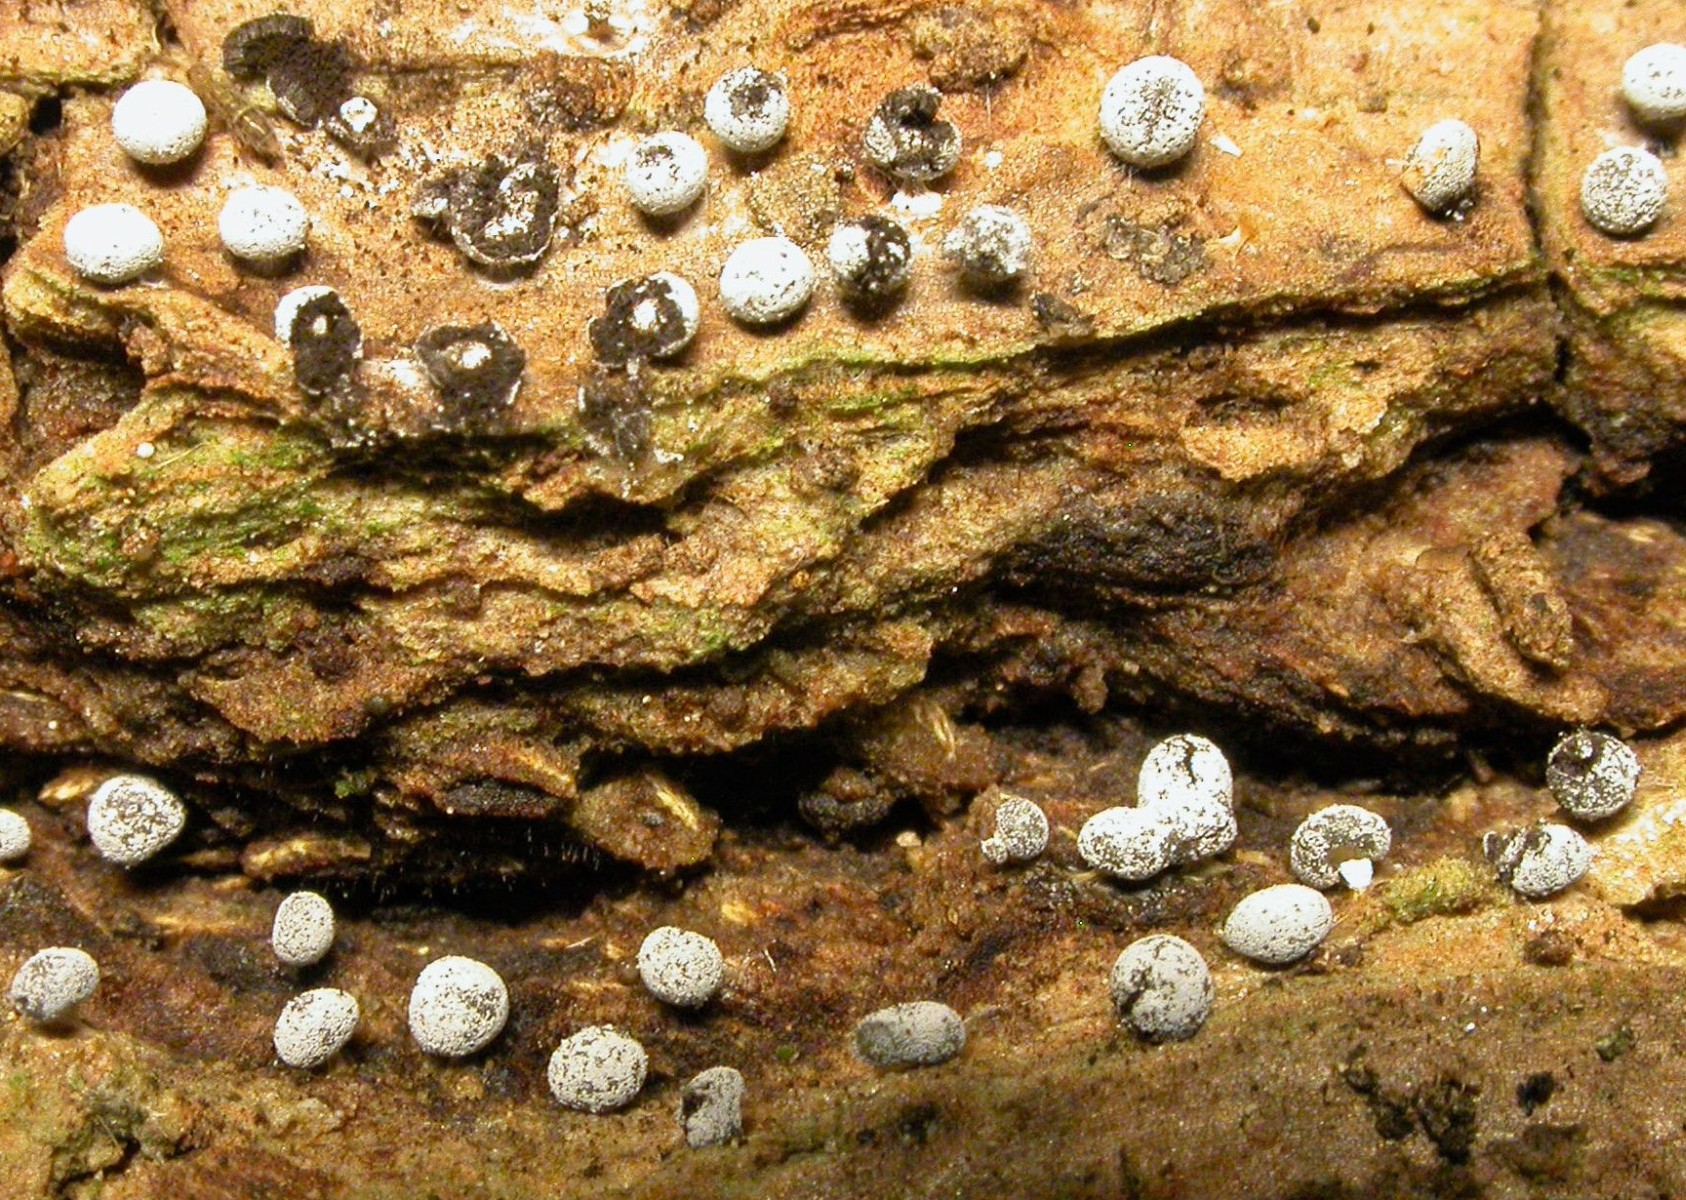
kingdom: Protozoa
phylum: Mycetozoa
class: Myxomycetes
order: Physarales
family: Didymiaceae
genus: Didymium
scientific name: Didymium squamulosum
